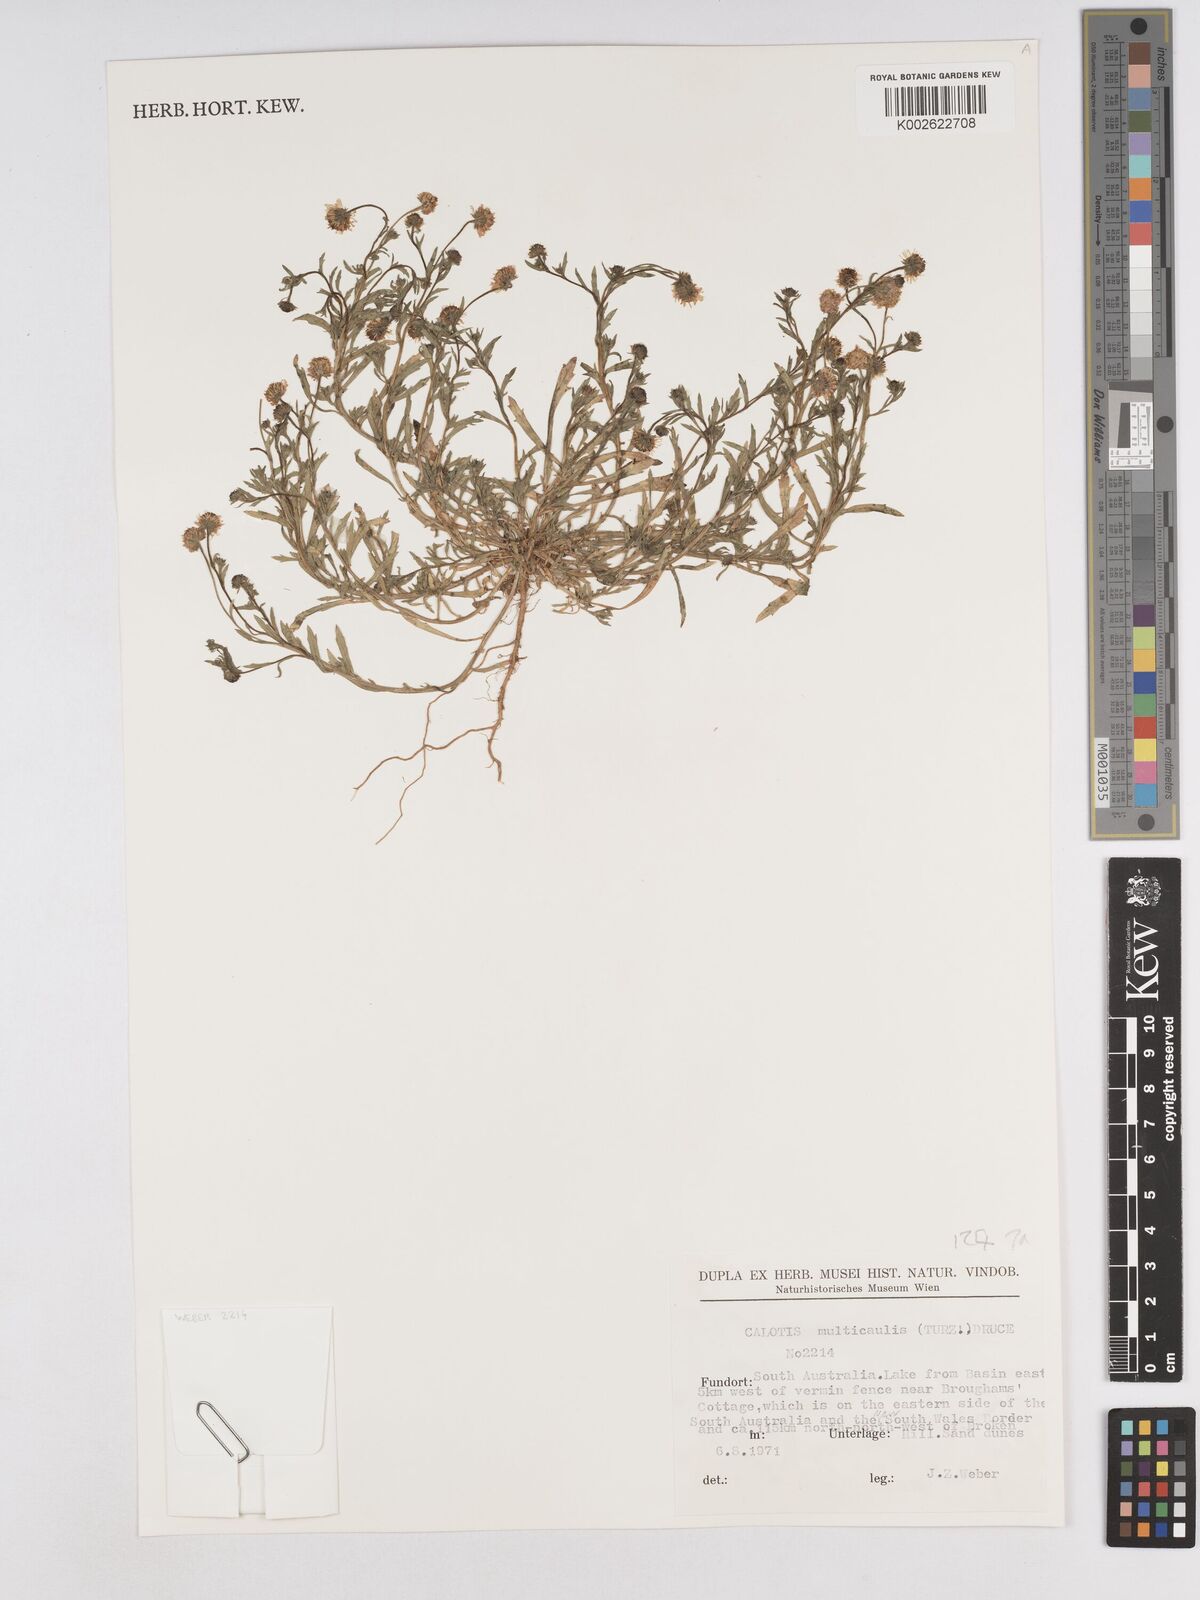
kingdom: Plantae
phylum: Tracheophyta
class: Magnoliopsida
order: Asterales
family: Asteraceae
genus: Calotis
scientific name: Calotis multicaulis
